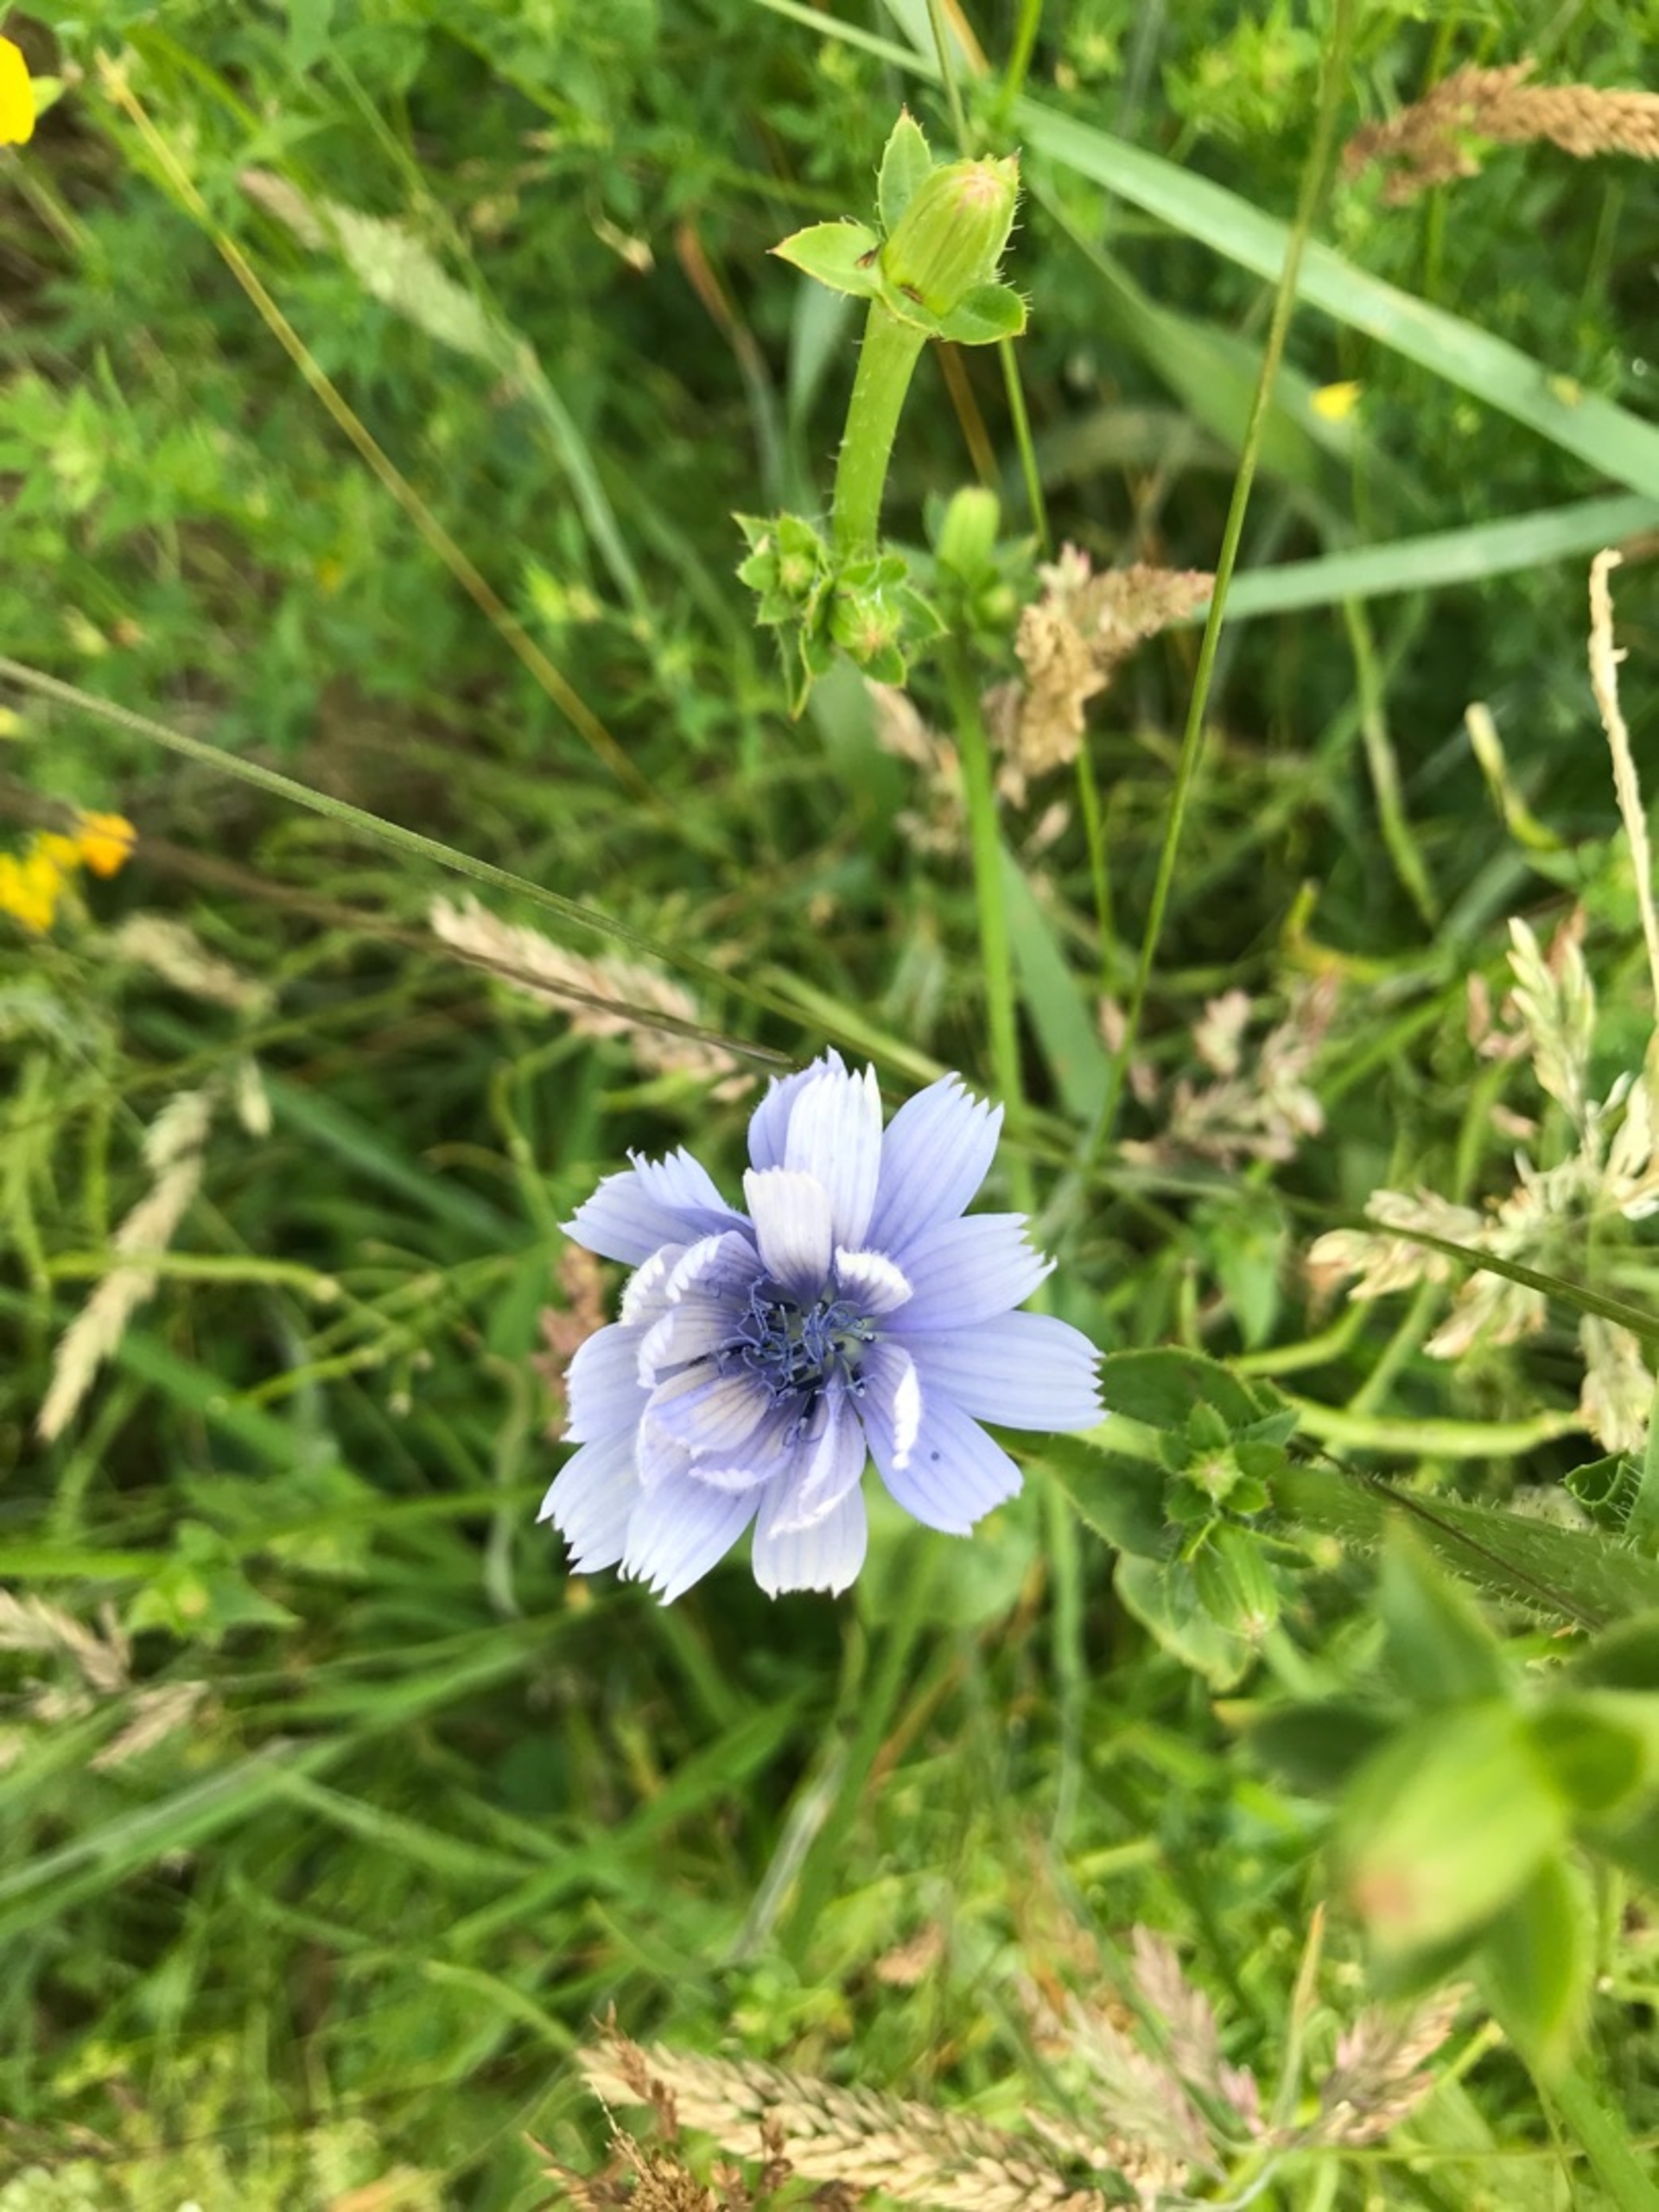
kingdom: Plantae
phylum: Tracheophyta
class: Magnoliopsida
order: Asterales
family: Asteraceae
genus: Cichorium
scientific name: Cichorium intybus
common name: Cikorie
